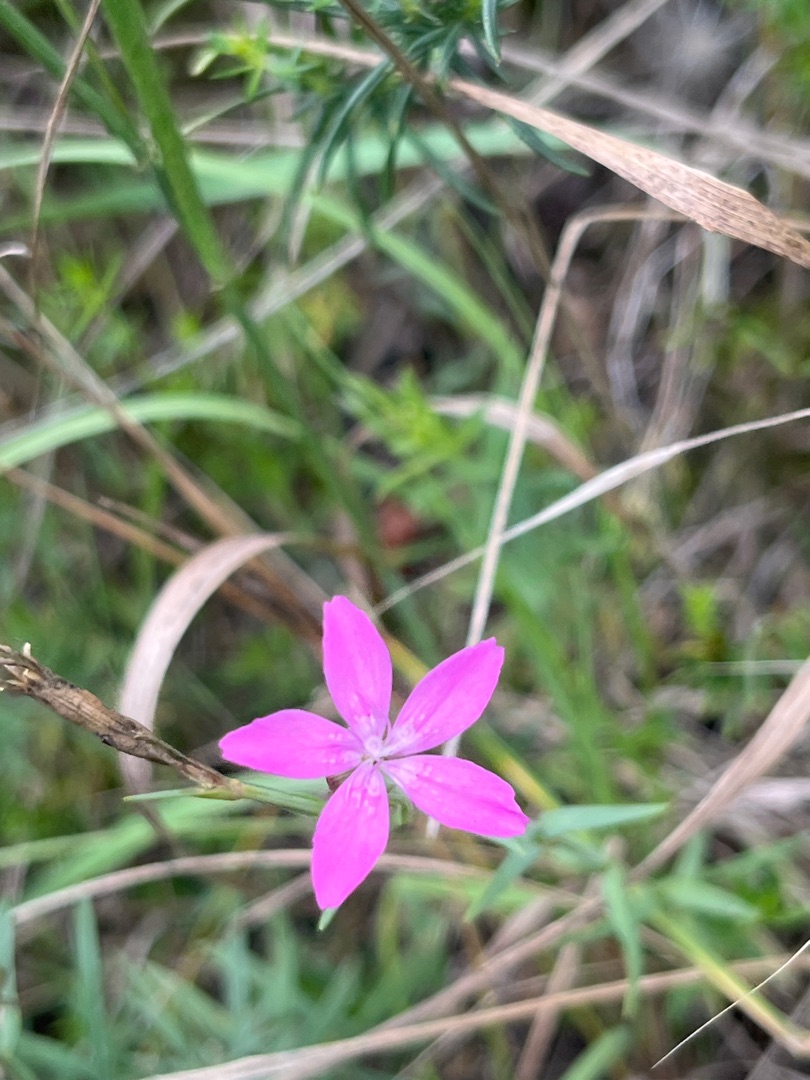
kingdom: Plantae
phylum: Tracheophyta
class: Magnoliopsida
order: Caryophyllales
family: Caryophyllaceae
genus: Dianthus
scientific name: Dianthus armeria
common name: Kost-nellike
